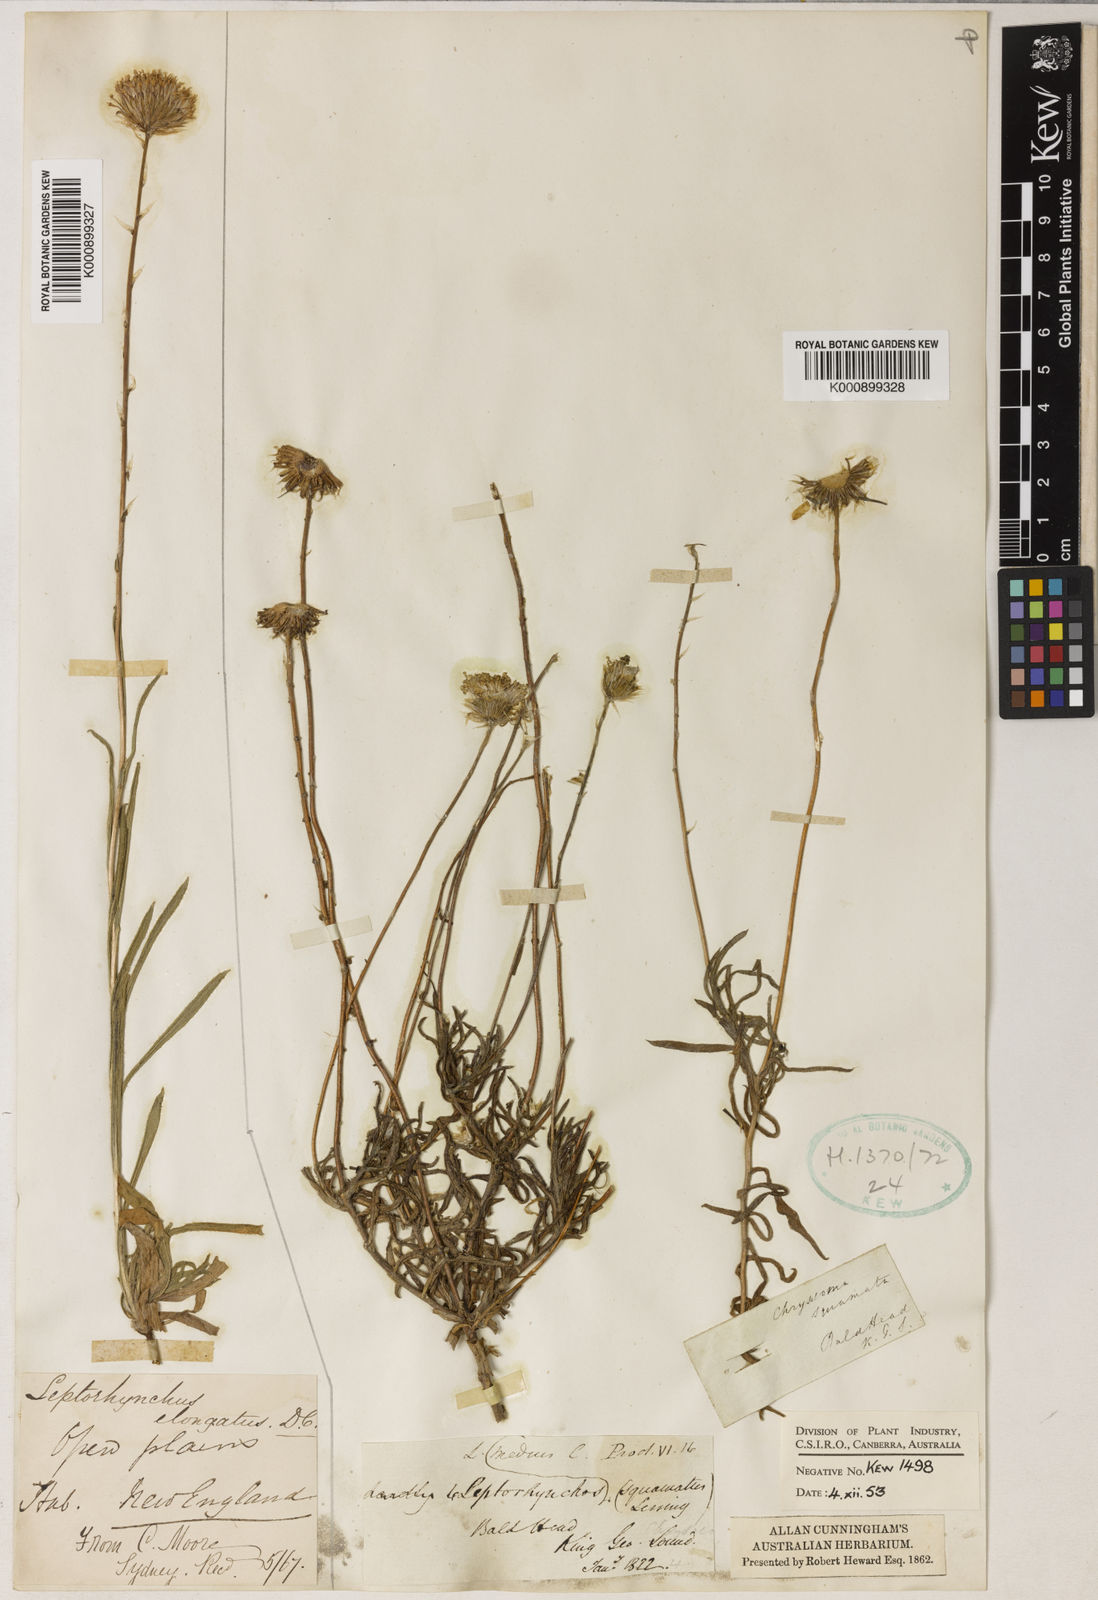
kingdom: Plantae
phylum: Tracheophyta
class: Magnoliopsida
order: Asterales
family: Asteraceae
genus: Leptorhynchos
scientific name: Leptorhynchos elongatus
